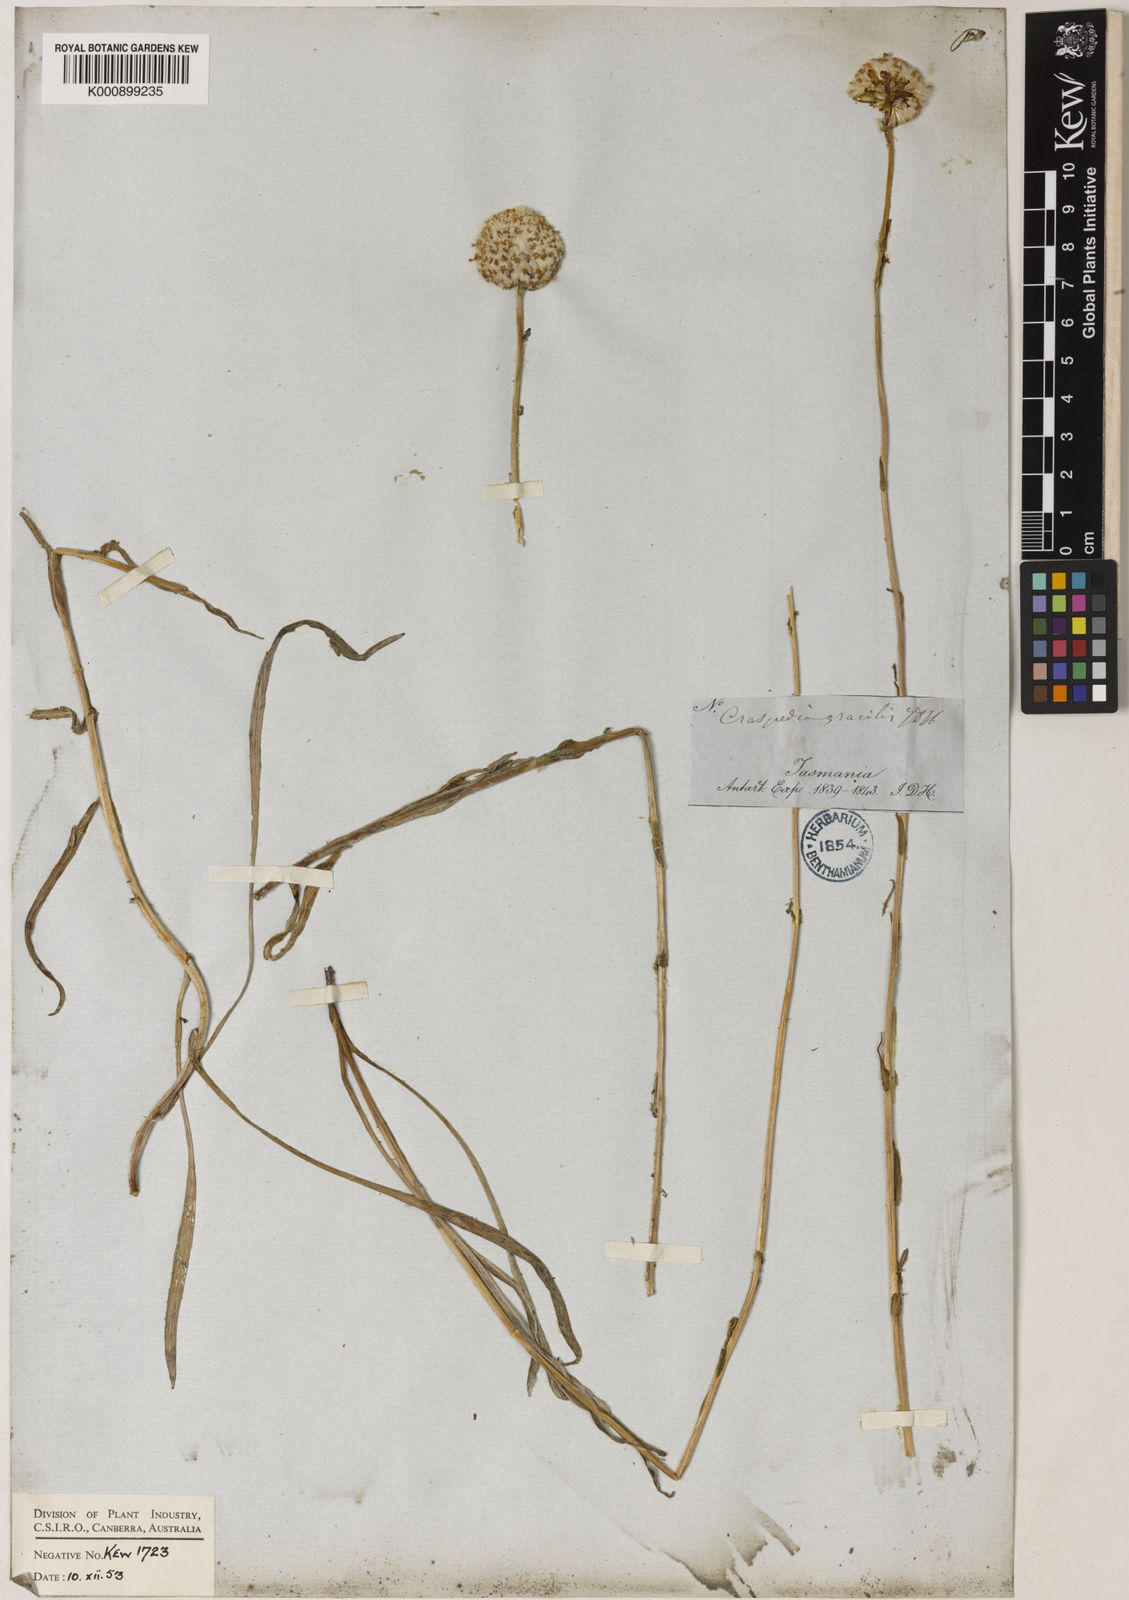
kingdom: Plantae
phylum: Tracheophyta
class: Magnoliopsida
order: Asterales
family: Asteraceae
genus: Craspedia
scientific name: Craspedia glauca
